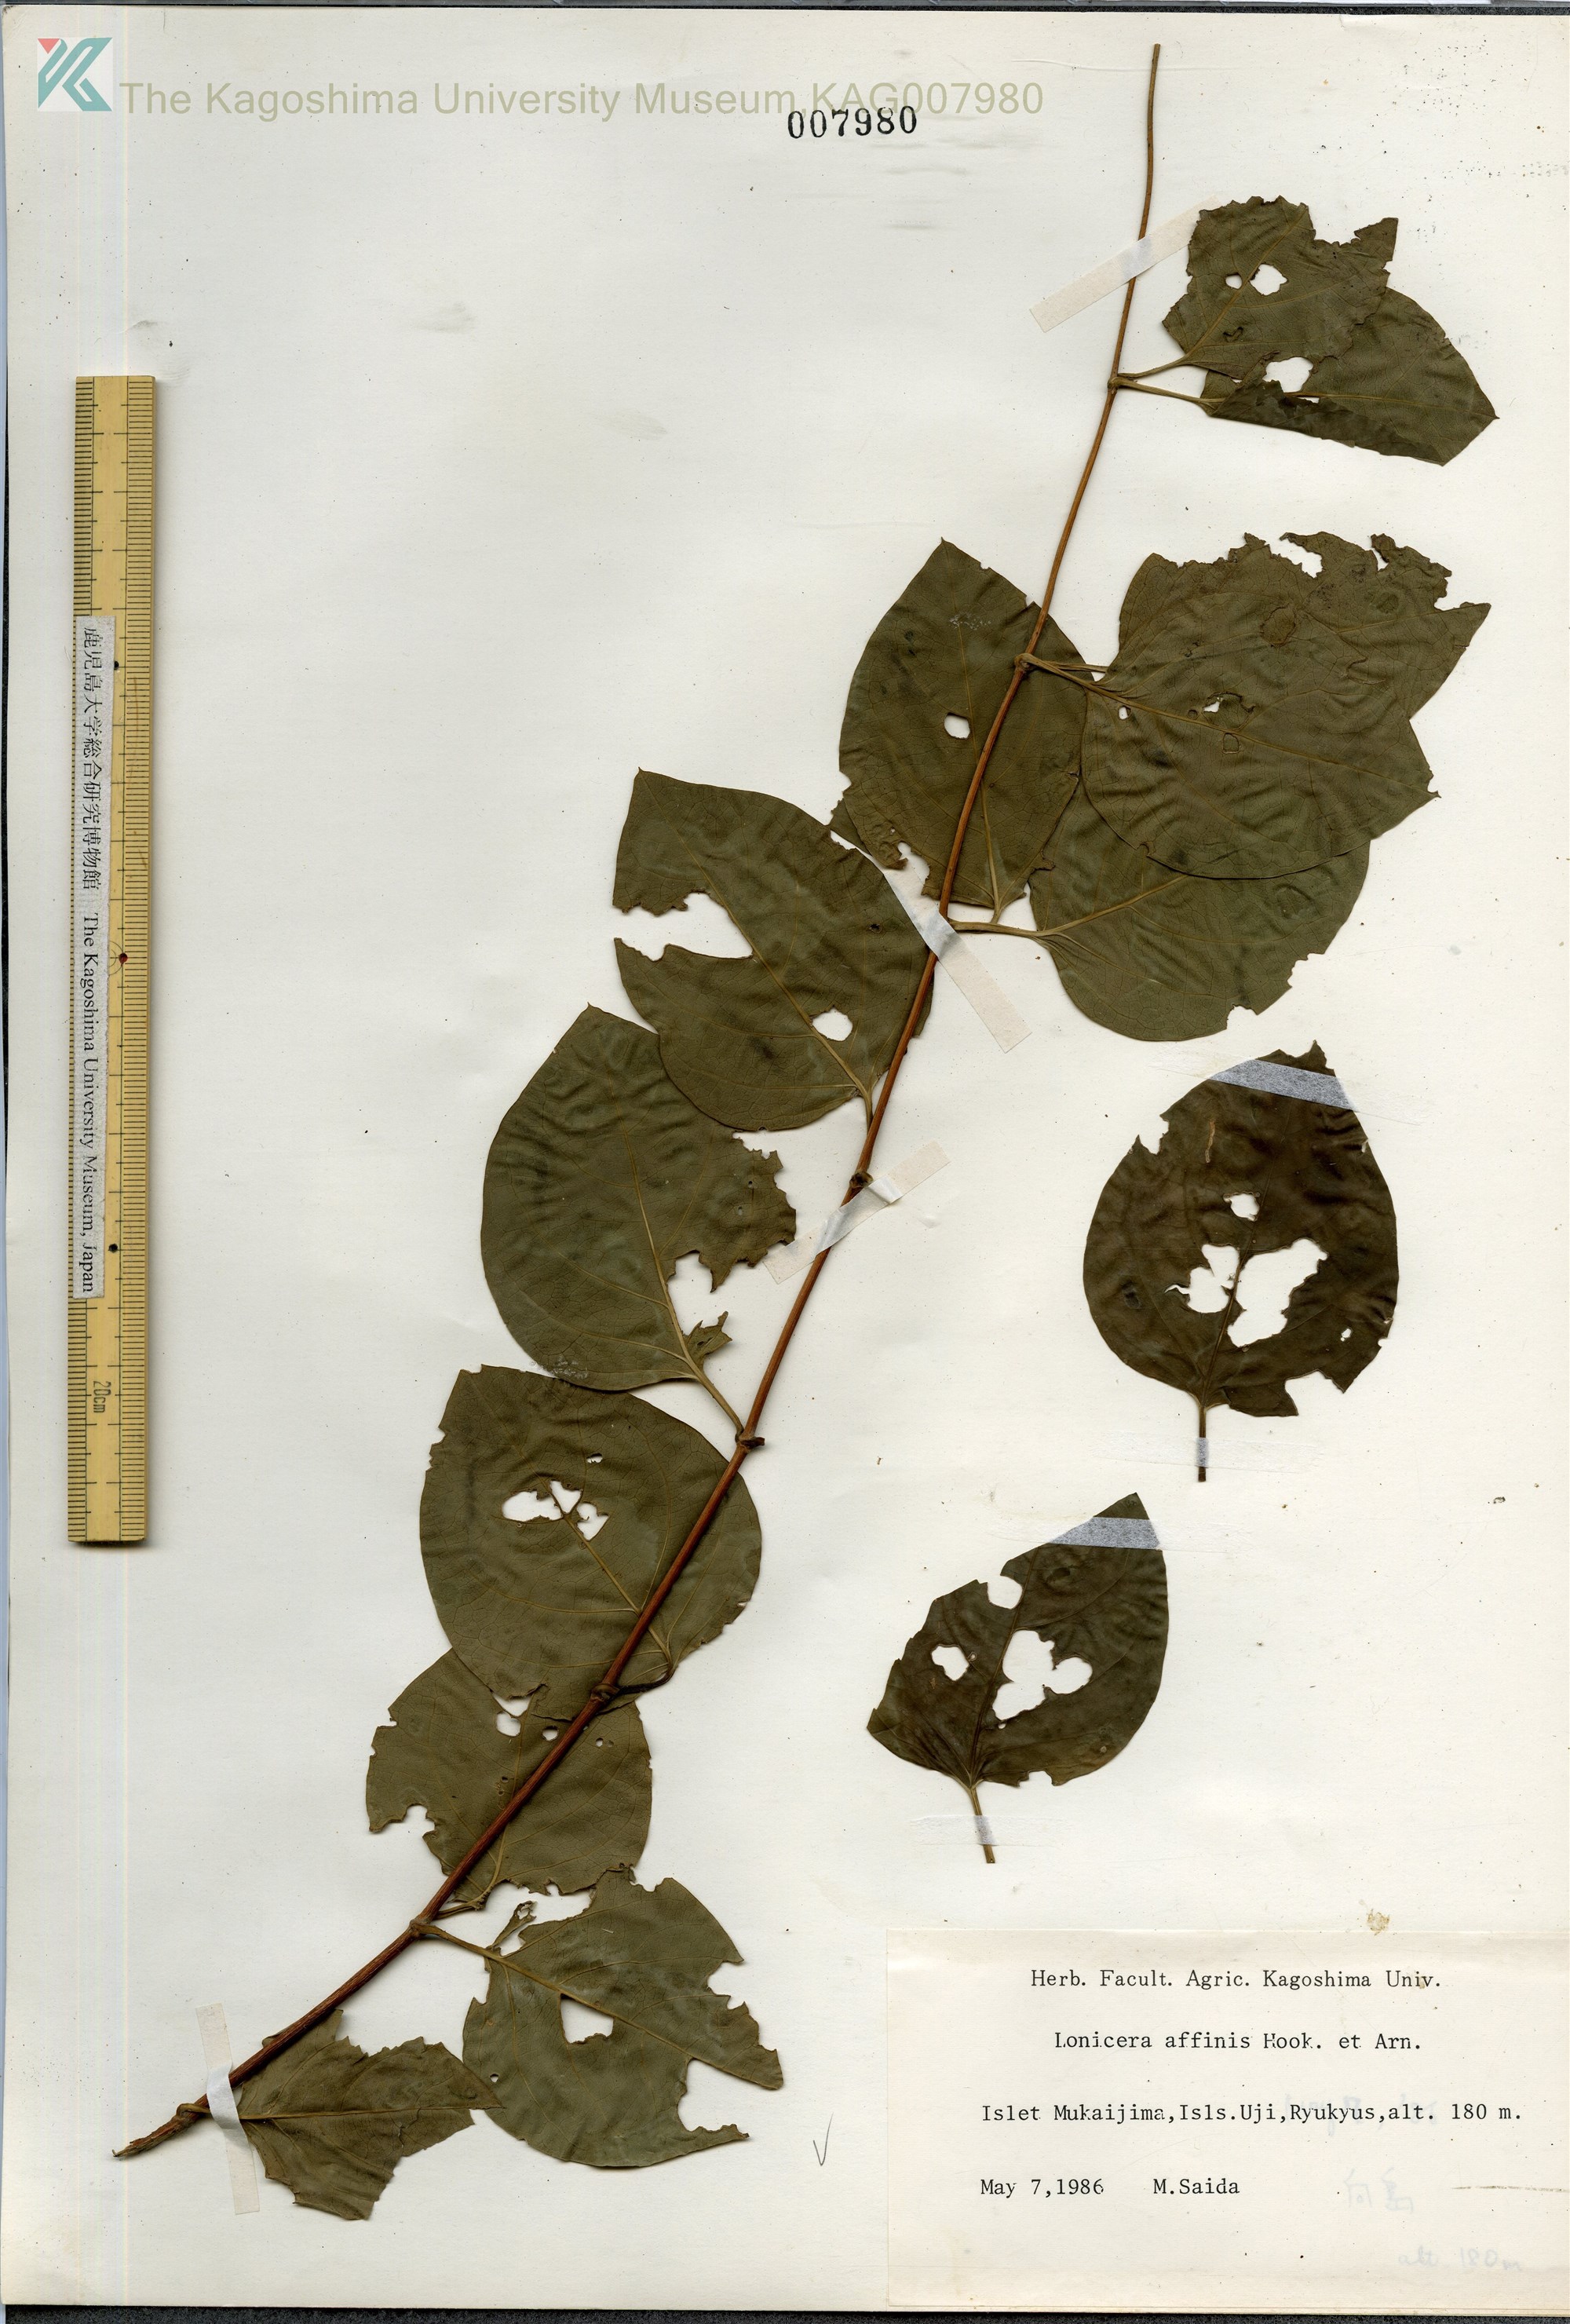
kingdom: Plantae
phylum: Tracheophyta
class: Magnoliopsida
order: Dipsacales
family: Caprifoliaceae
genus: Lonicera
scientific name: Lonicera affinis
